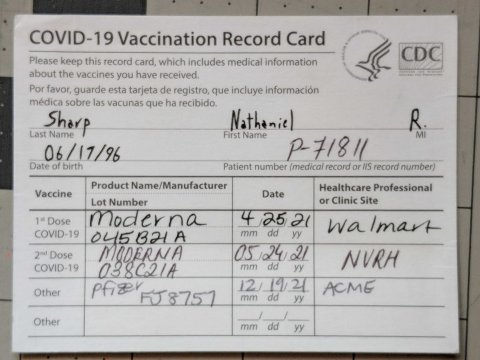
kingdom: Animalia
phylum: Arthropoda
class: Insecta
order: Lepidoptera
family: Lycaenidae
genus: Elkalyce
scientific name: Elkalyce comyntas
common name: Eastern Tailed-Blue
